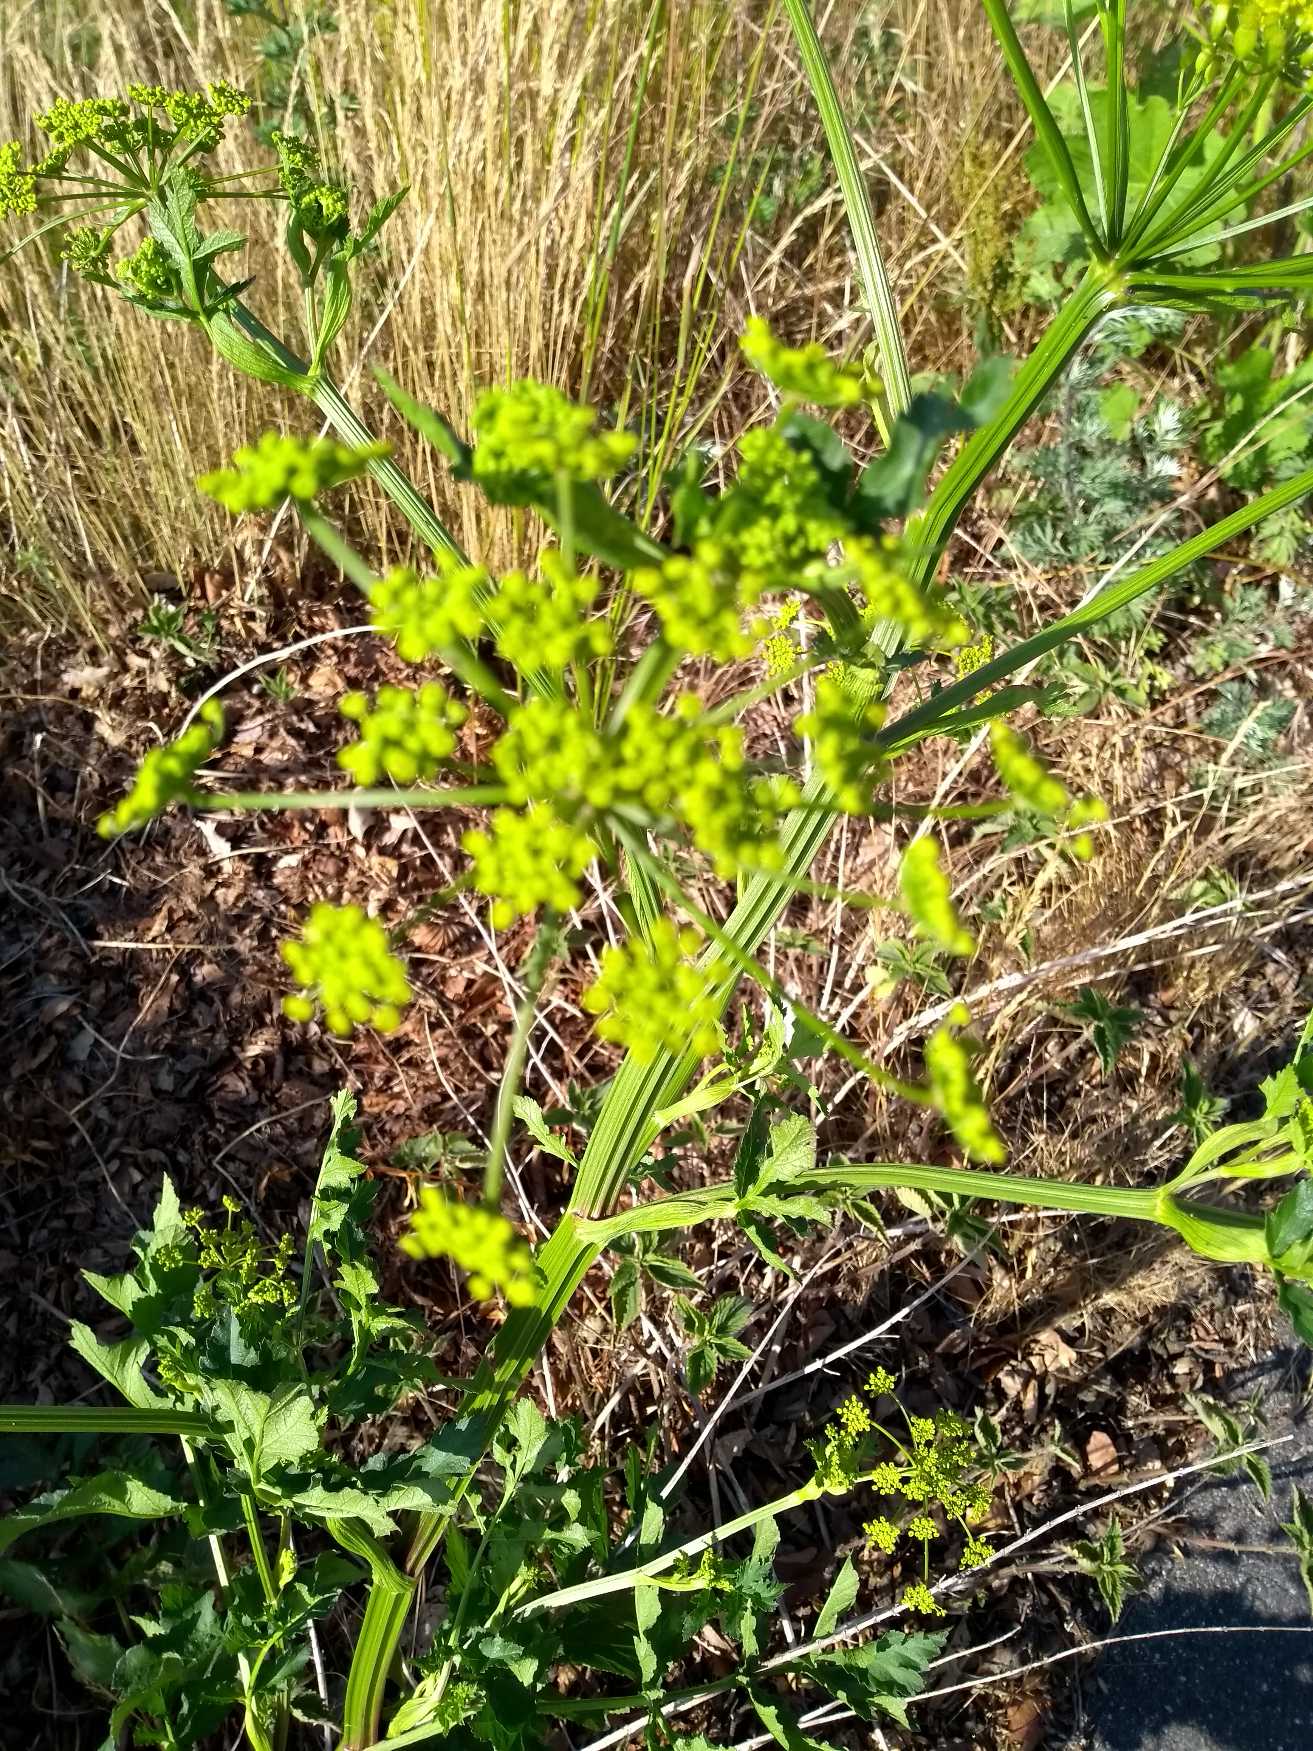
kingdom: Plantae
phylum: Tracheophyta
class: Magnoliopsida
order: Apiales
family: Apiaceae
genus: Pastinaca
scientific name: Pastinaca sativa
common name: Pastinak
